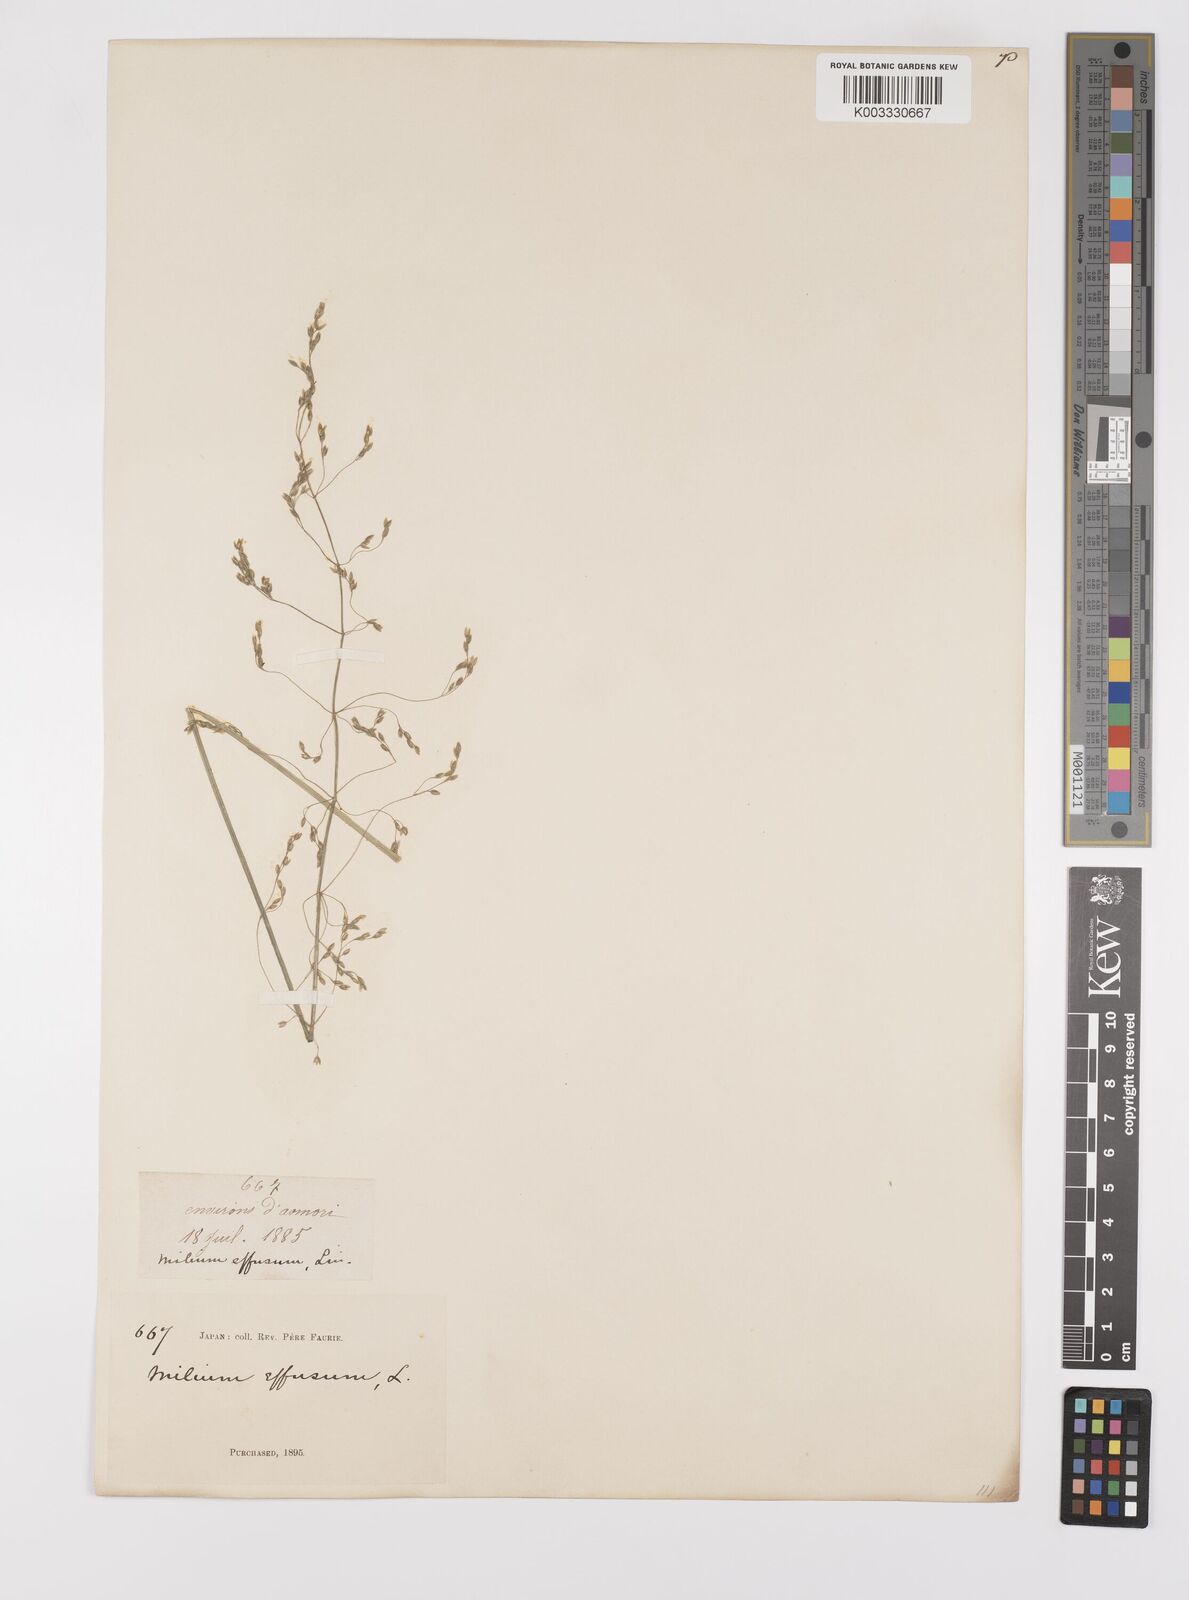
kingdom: Plantae
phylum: Tracheophyta
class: Liliopsida
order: Poales
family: Poaceae
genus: Milium
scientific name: Milium effusum
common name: Wood millet
